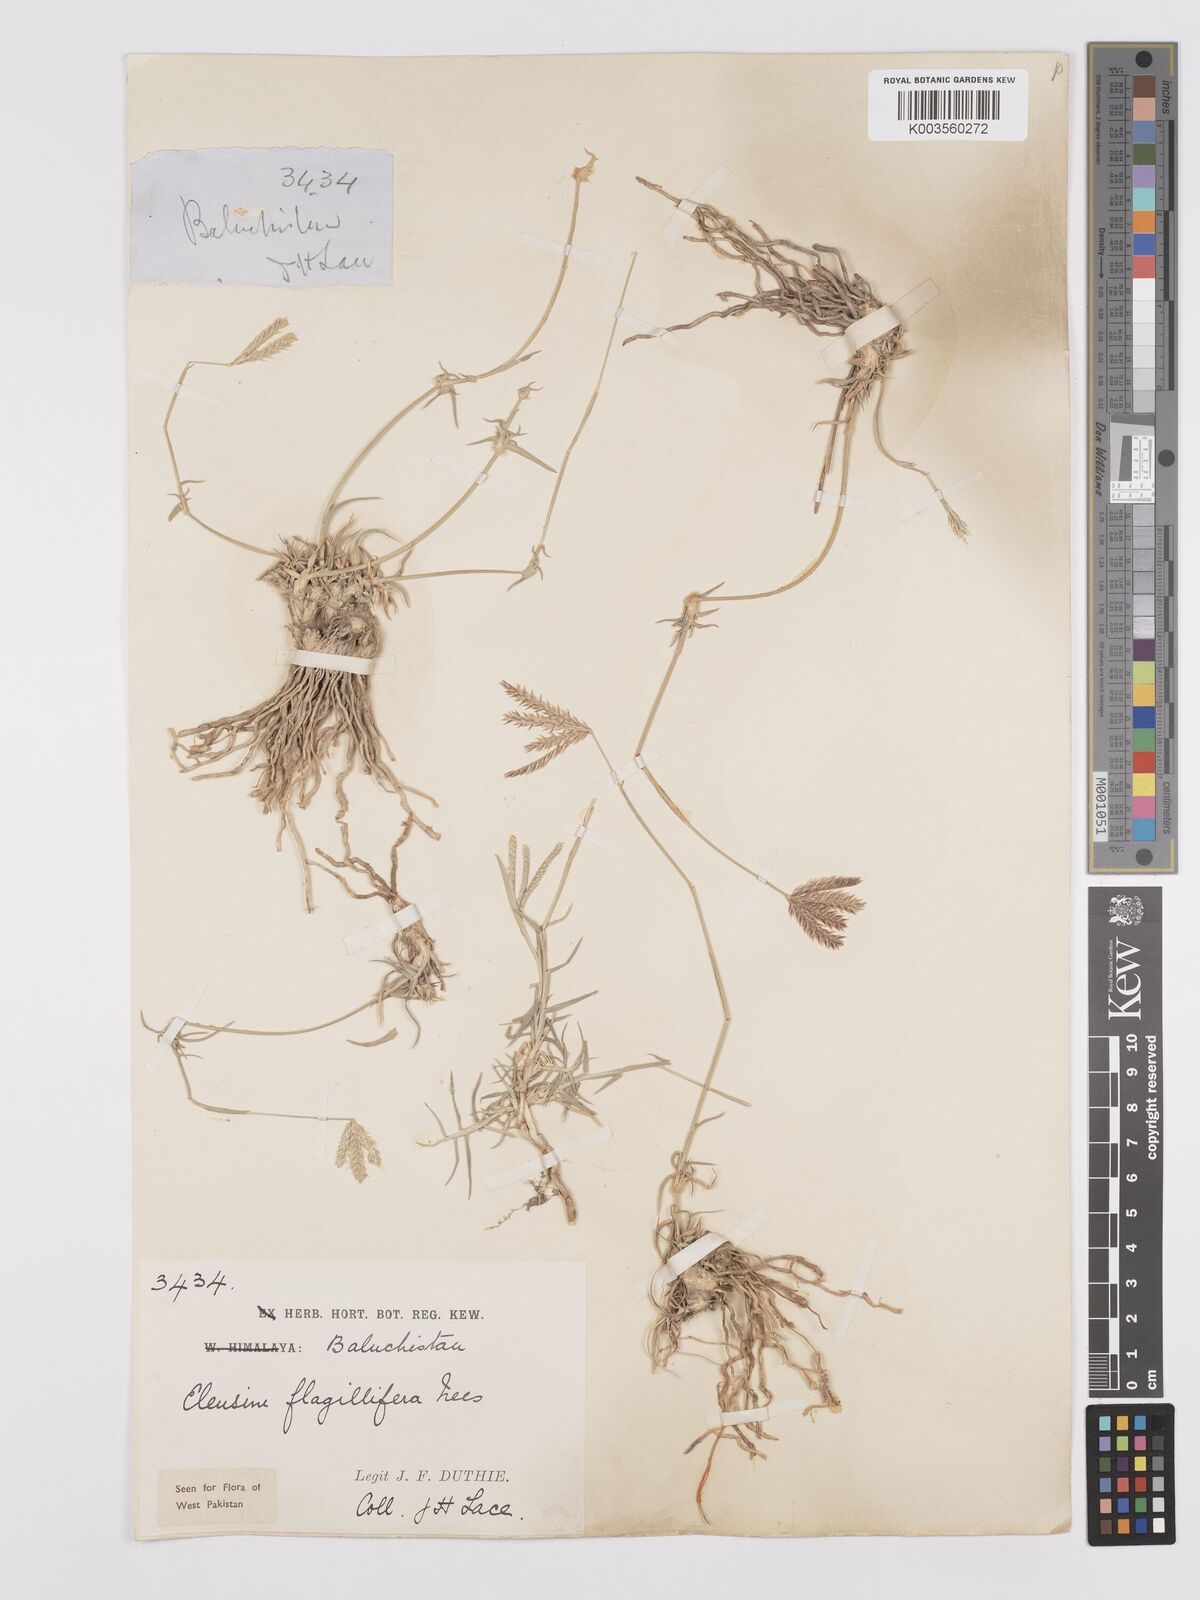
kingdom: Plantae
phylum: Tracheophyta
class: Liliopsida
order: Poales
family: Poaceae
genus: Chloris
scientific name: Chloris flagellifera
